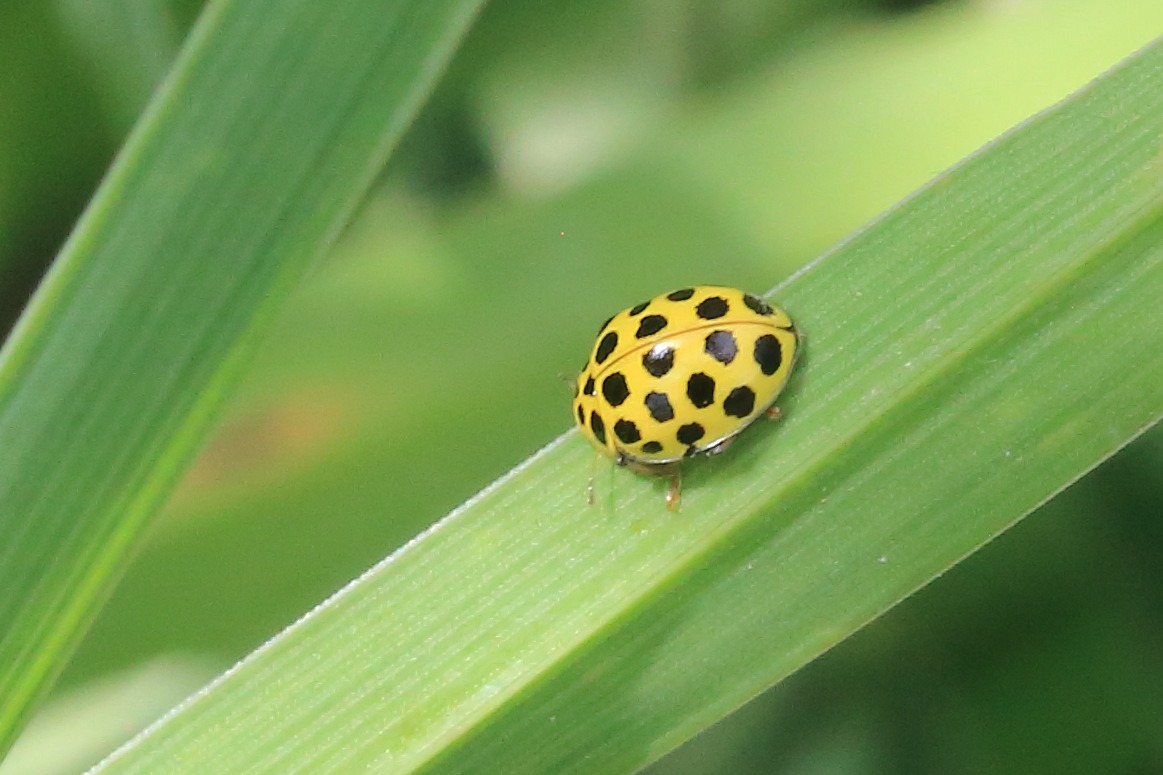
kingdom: Animalia
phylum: Arthropoda
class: Insecta
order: Coleoptera
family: Coccinellidae
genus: Psyllobora
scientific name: Psyllobora vigintiduopunctata
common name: Toogtyveplettet mariehøne
